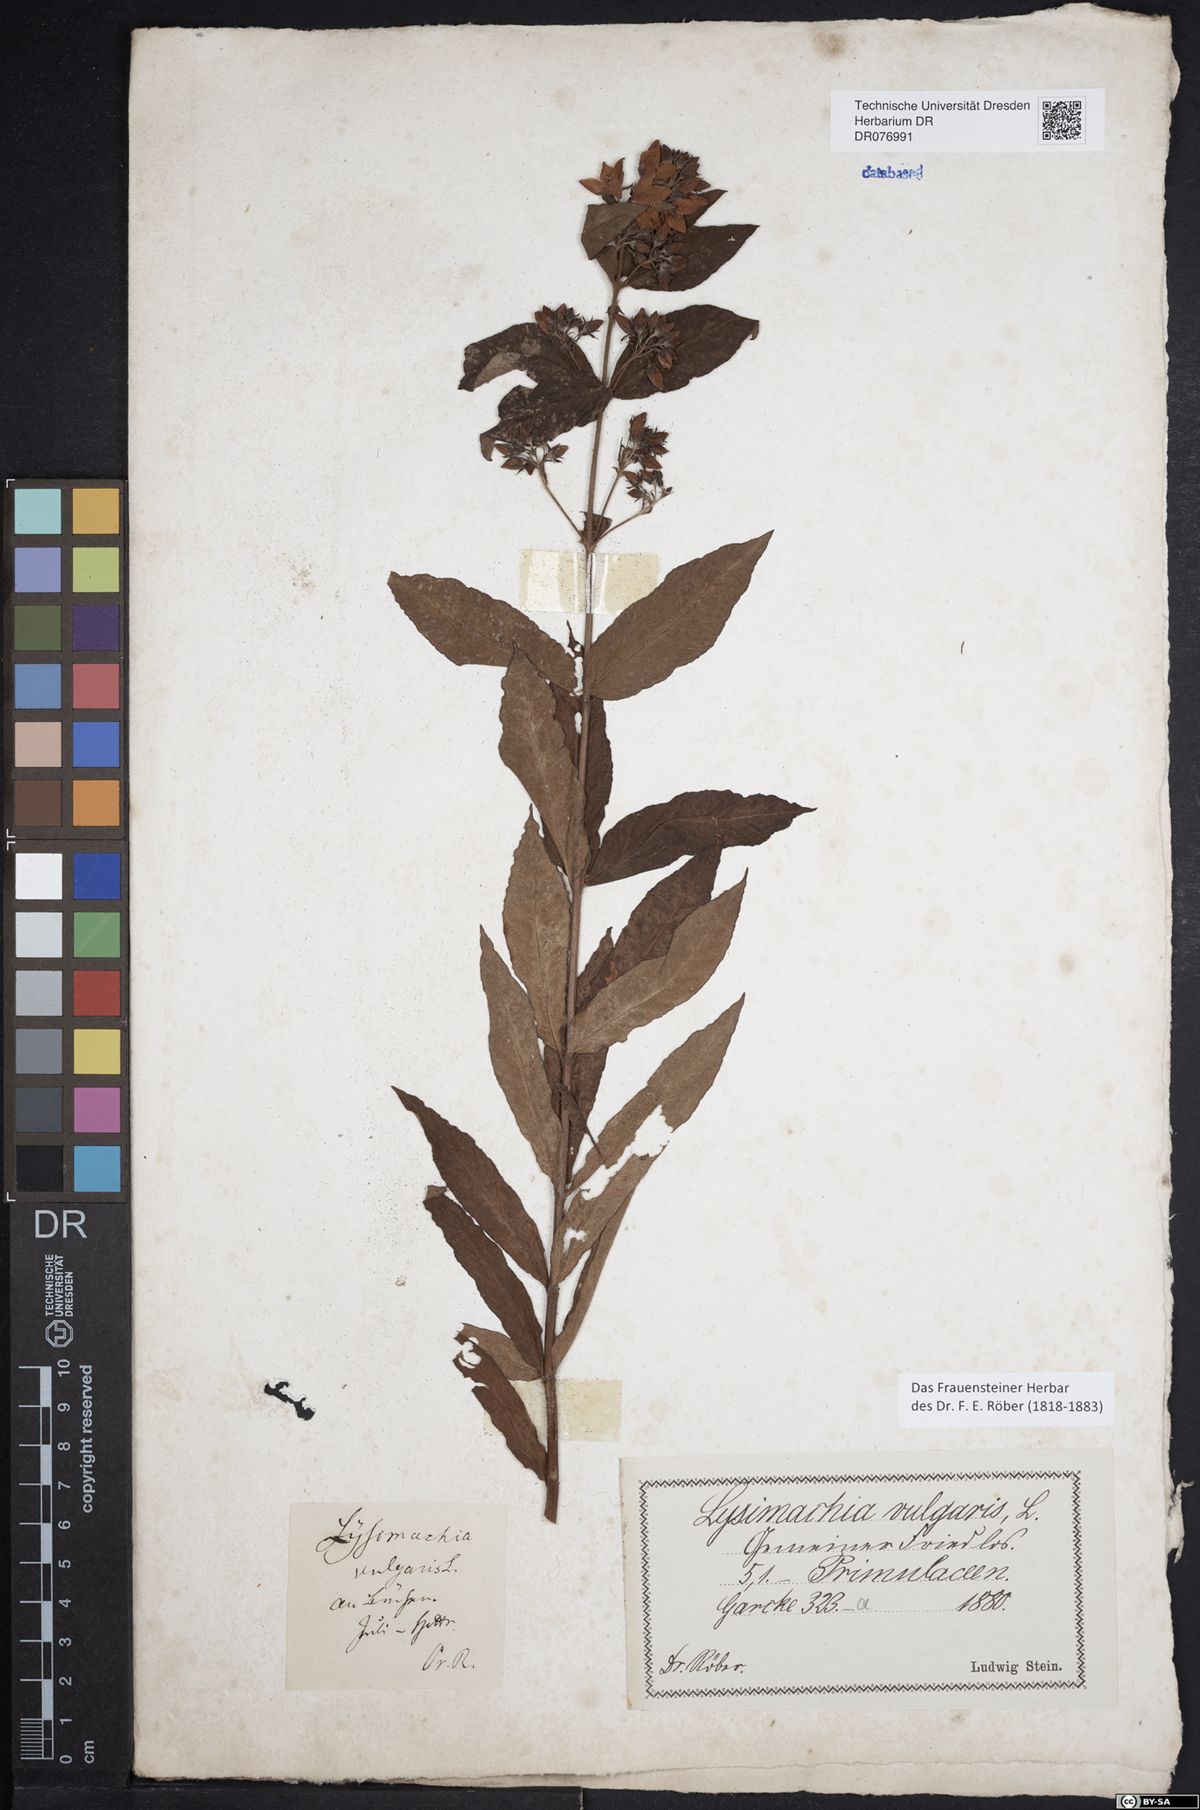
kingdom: Plantae
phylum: Tracheophyta
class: Magnoliopsida
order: Ericales
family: Primulaceae
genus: Lysimachia
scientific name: Lysimachia vulgaris
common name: Yellow loosestrife
